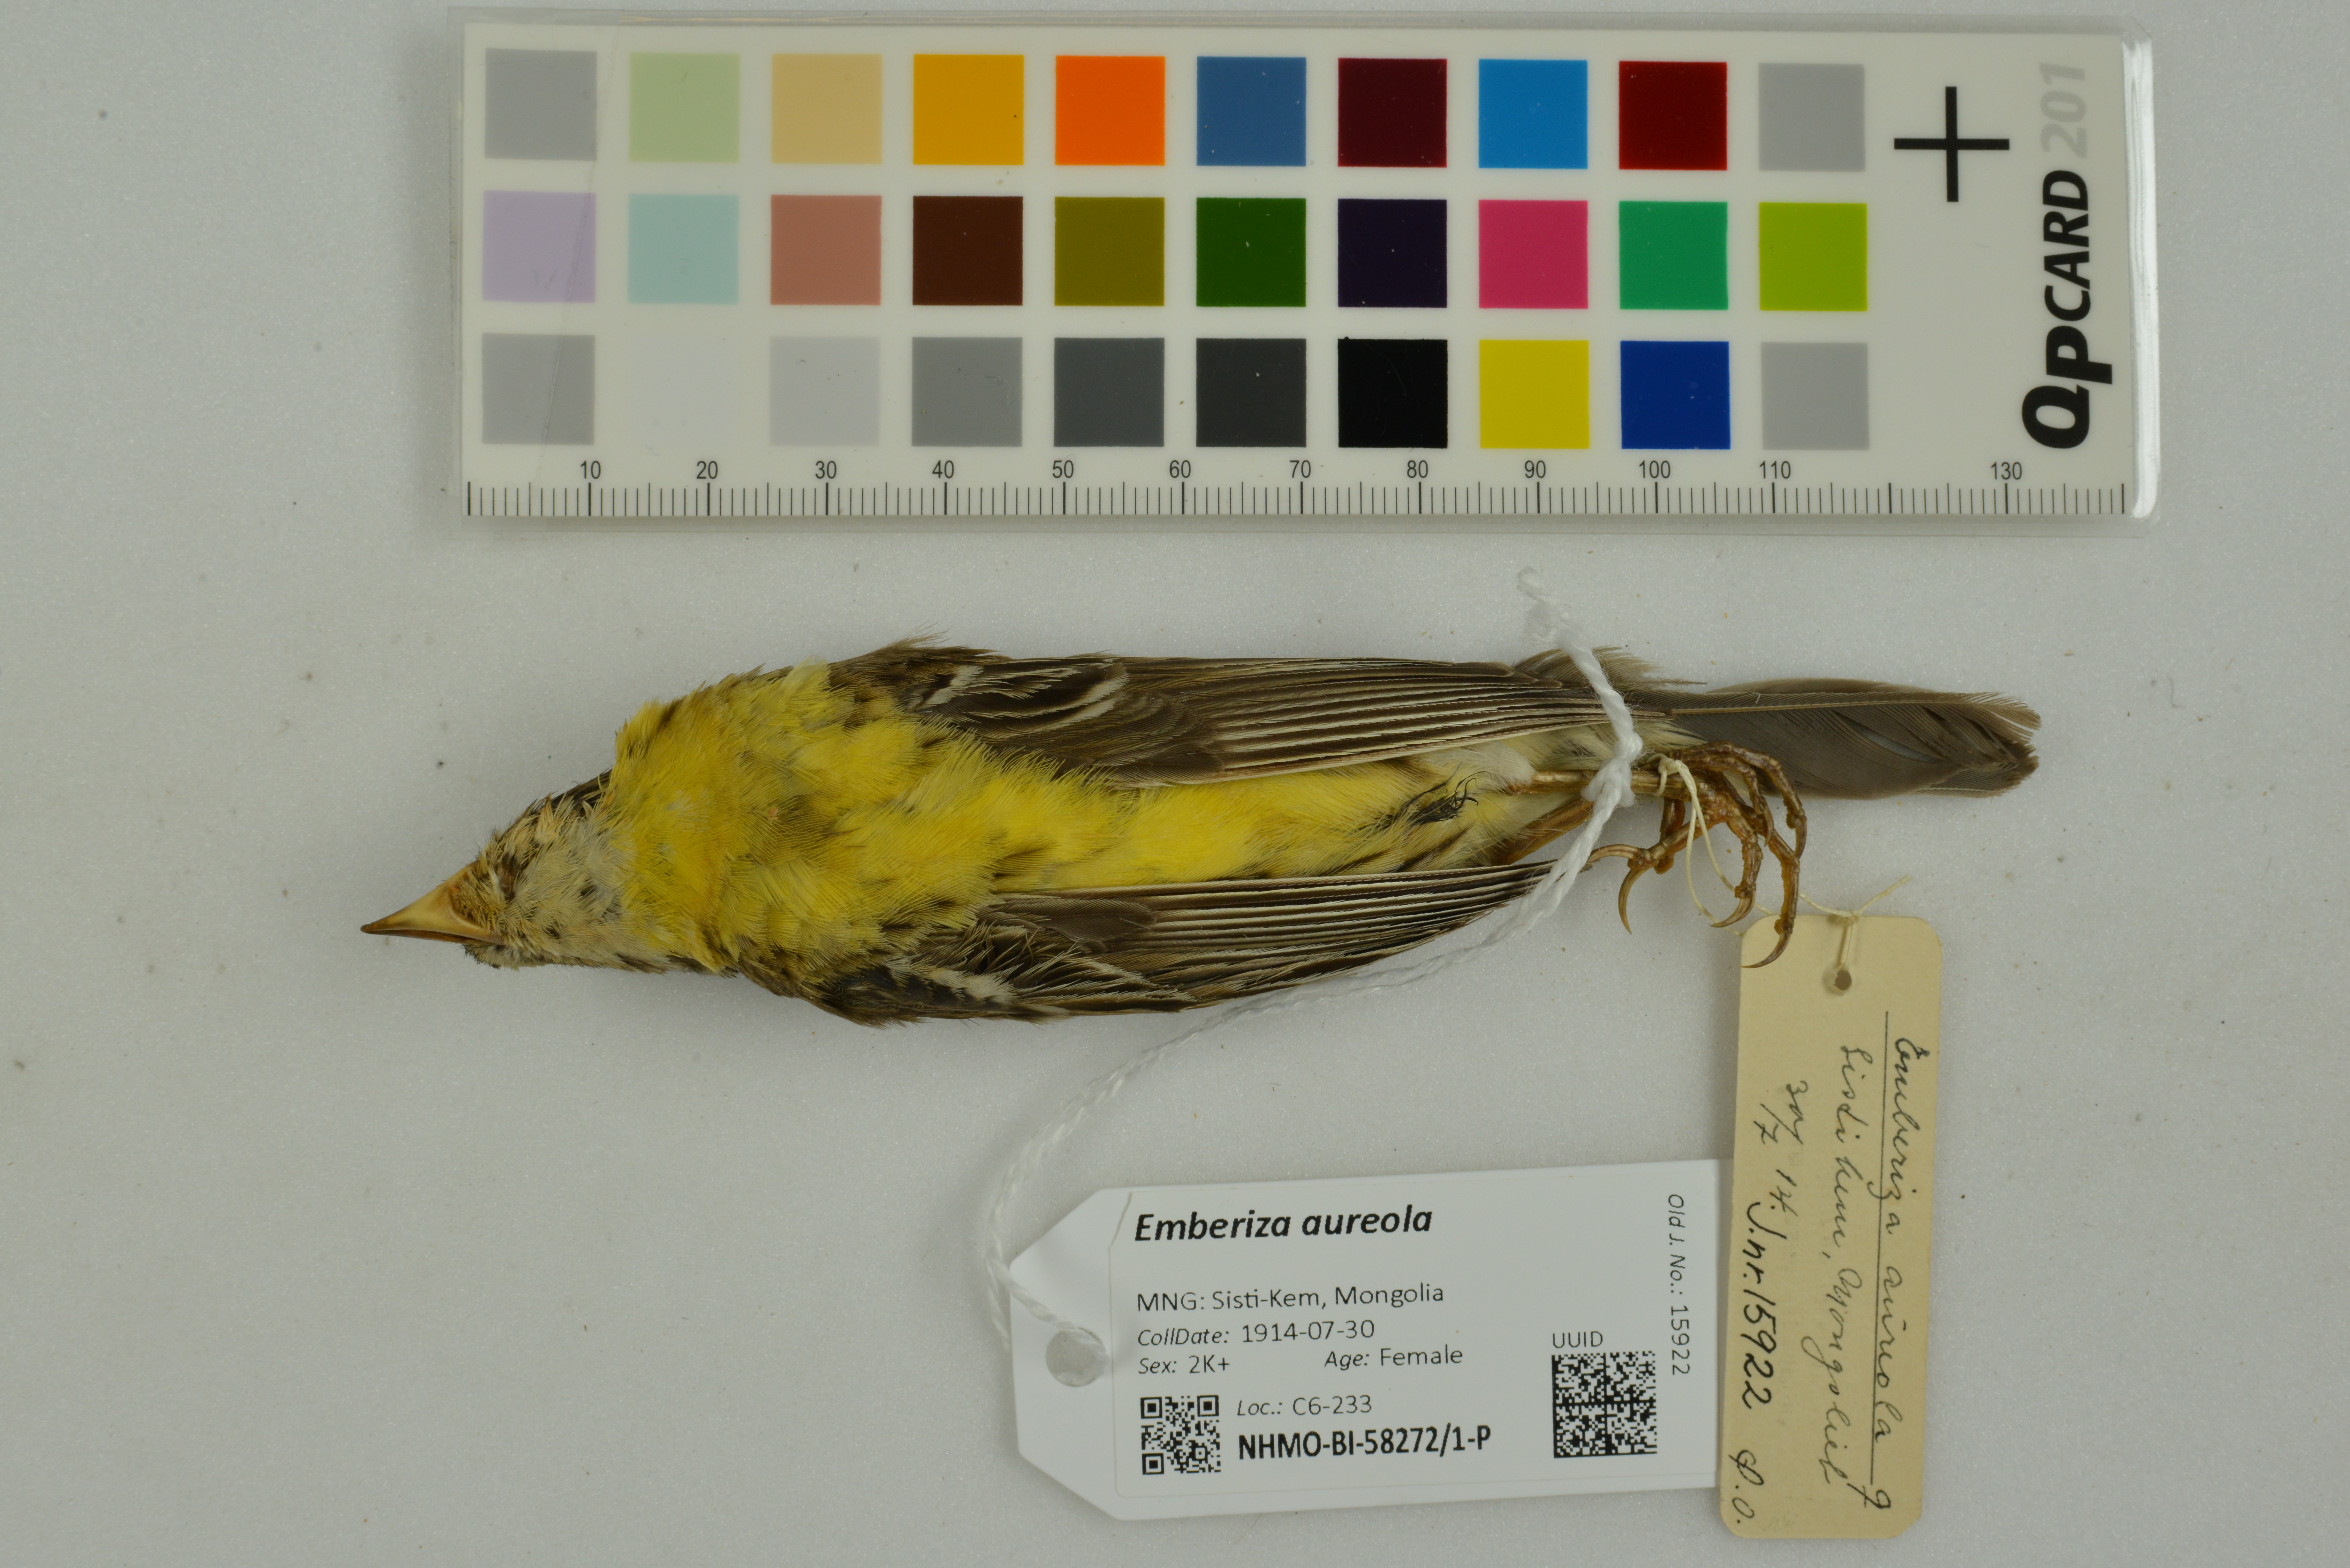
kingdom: Animalia
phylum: Chordata
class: Aves
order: Passeriformes
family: Emberizidae
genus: Emberiza
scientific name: Emberiza aureola
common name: Yellow-breasted bunting
